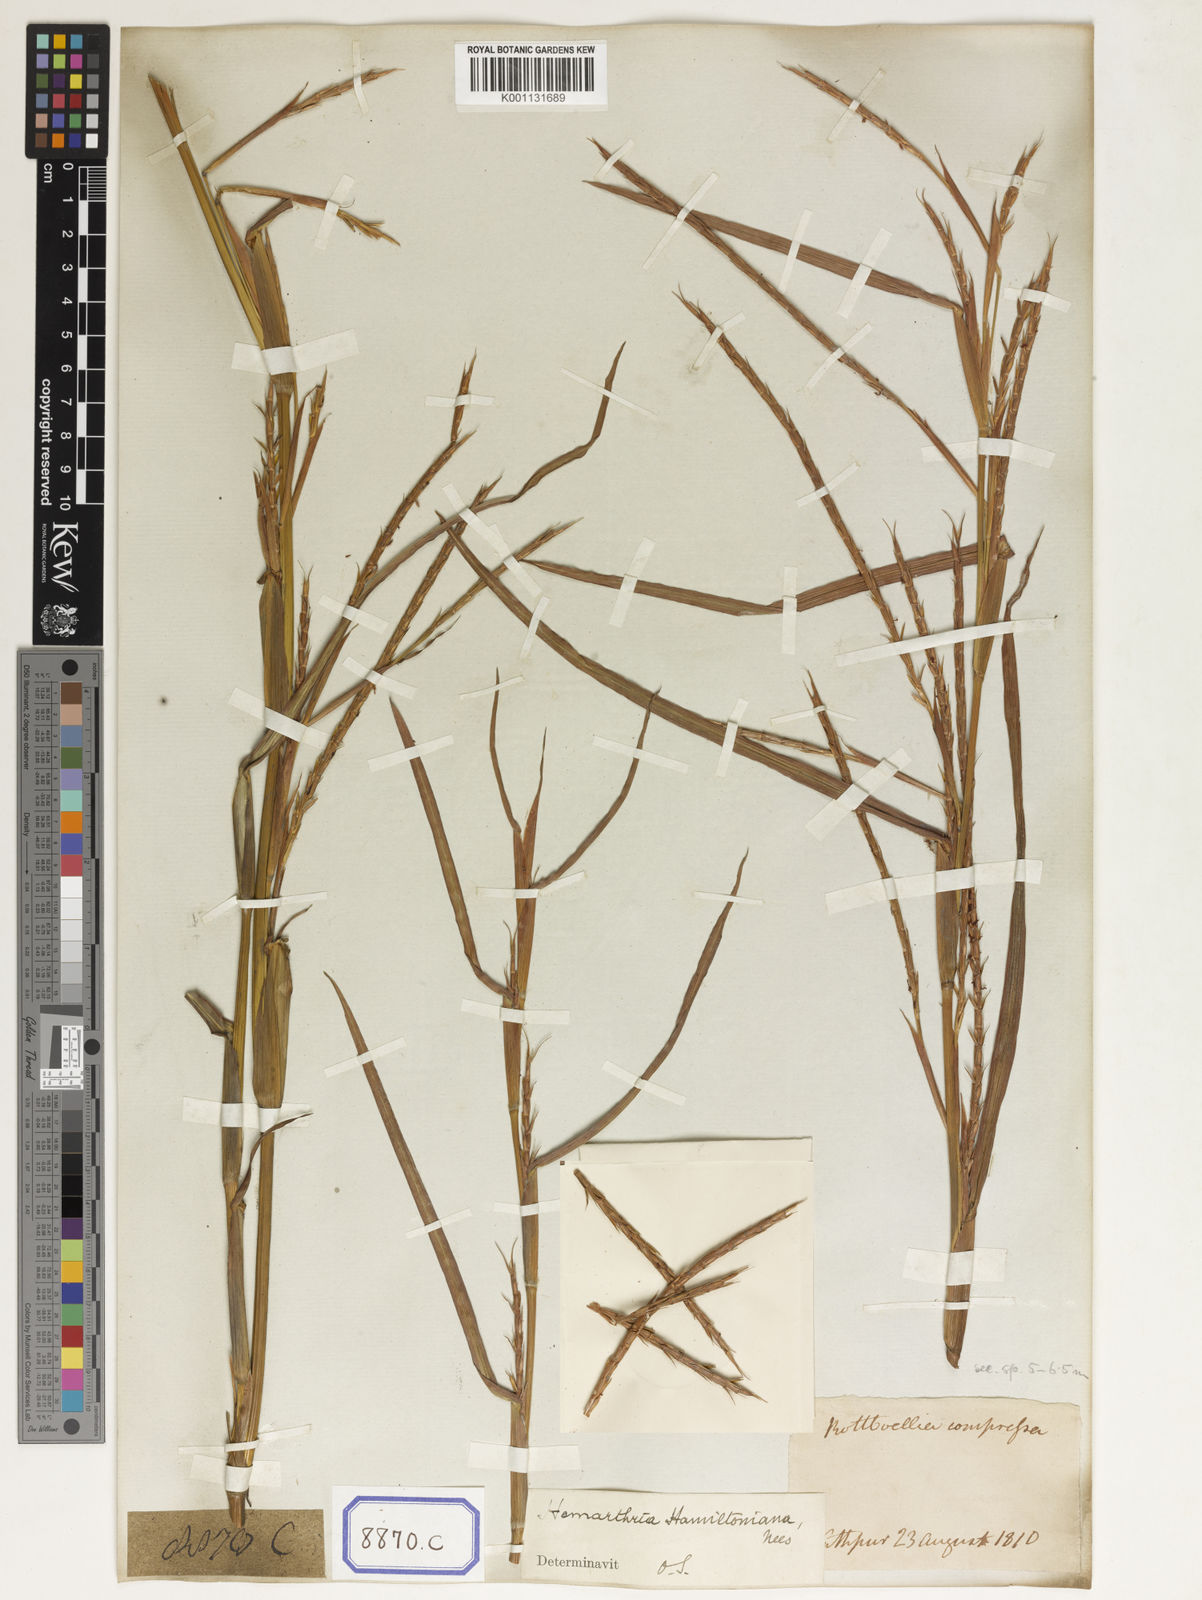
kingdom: Plantae
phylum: Tracheophyta
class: Liliopsida
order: Poales
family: Poaceae
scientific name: Poaceae
